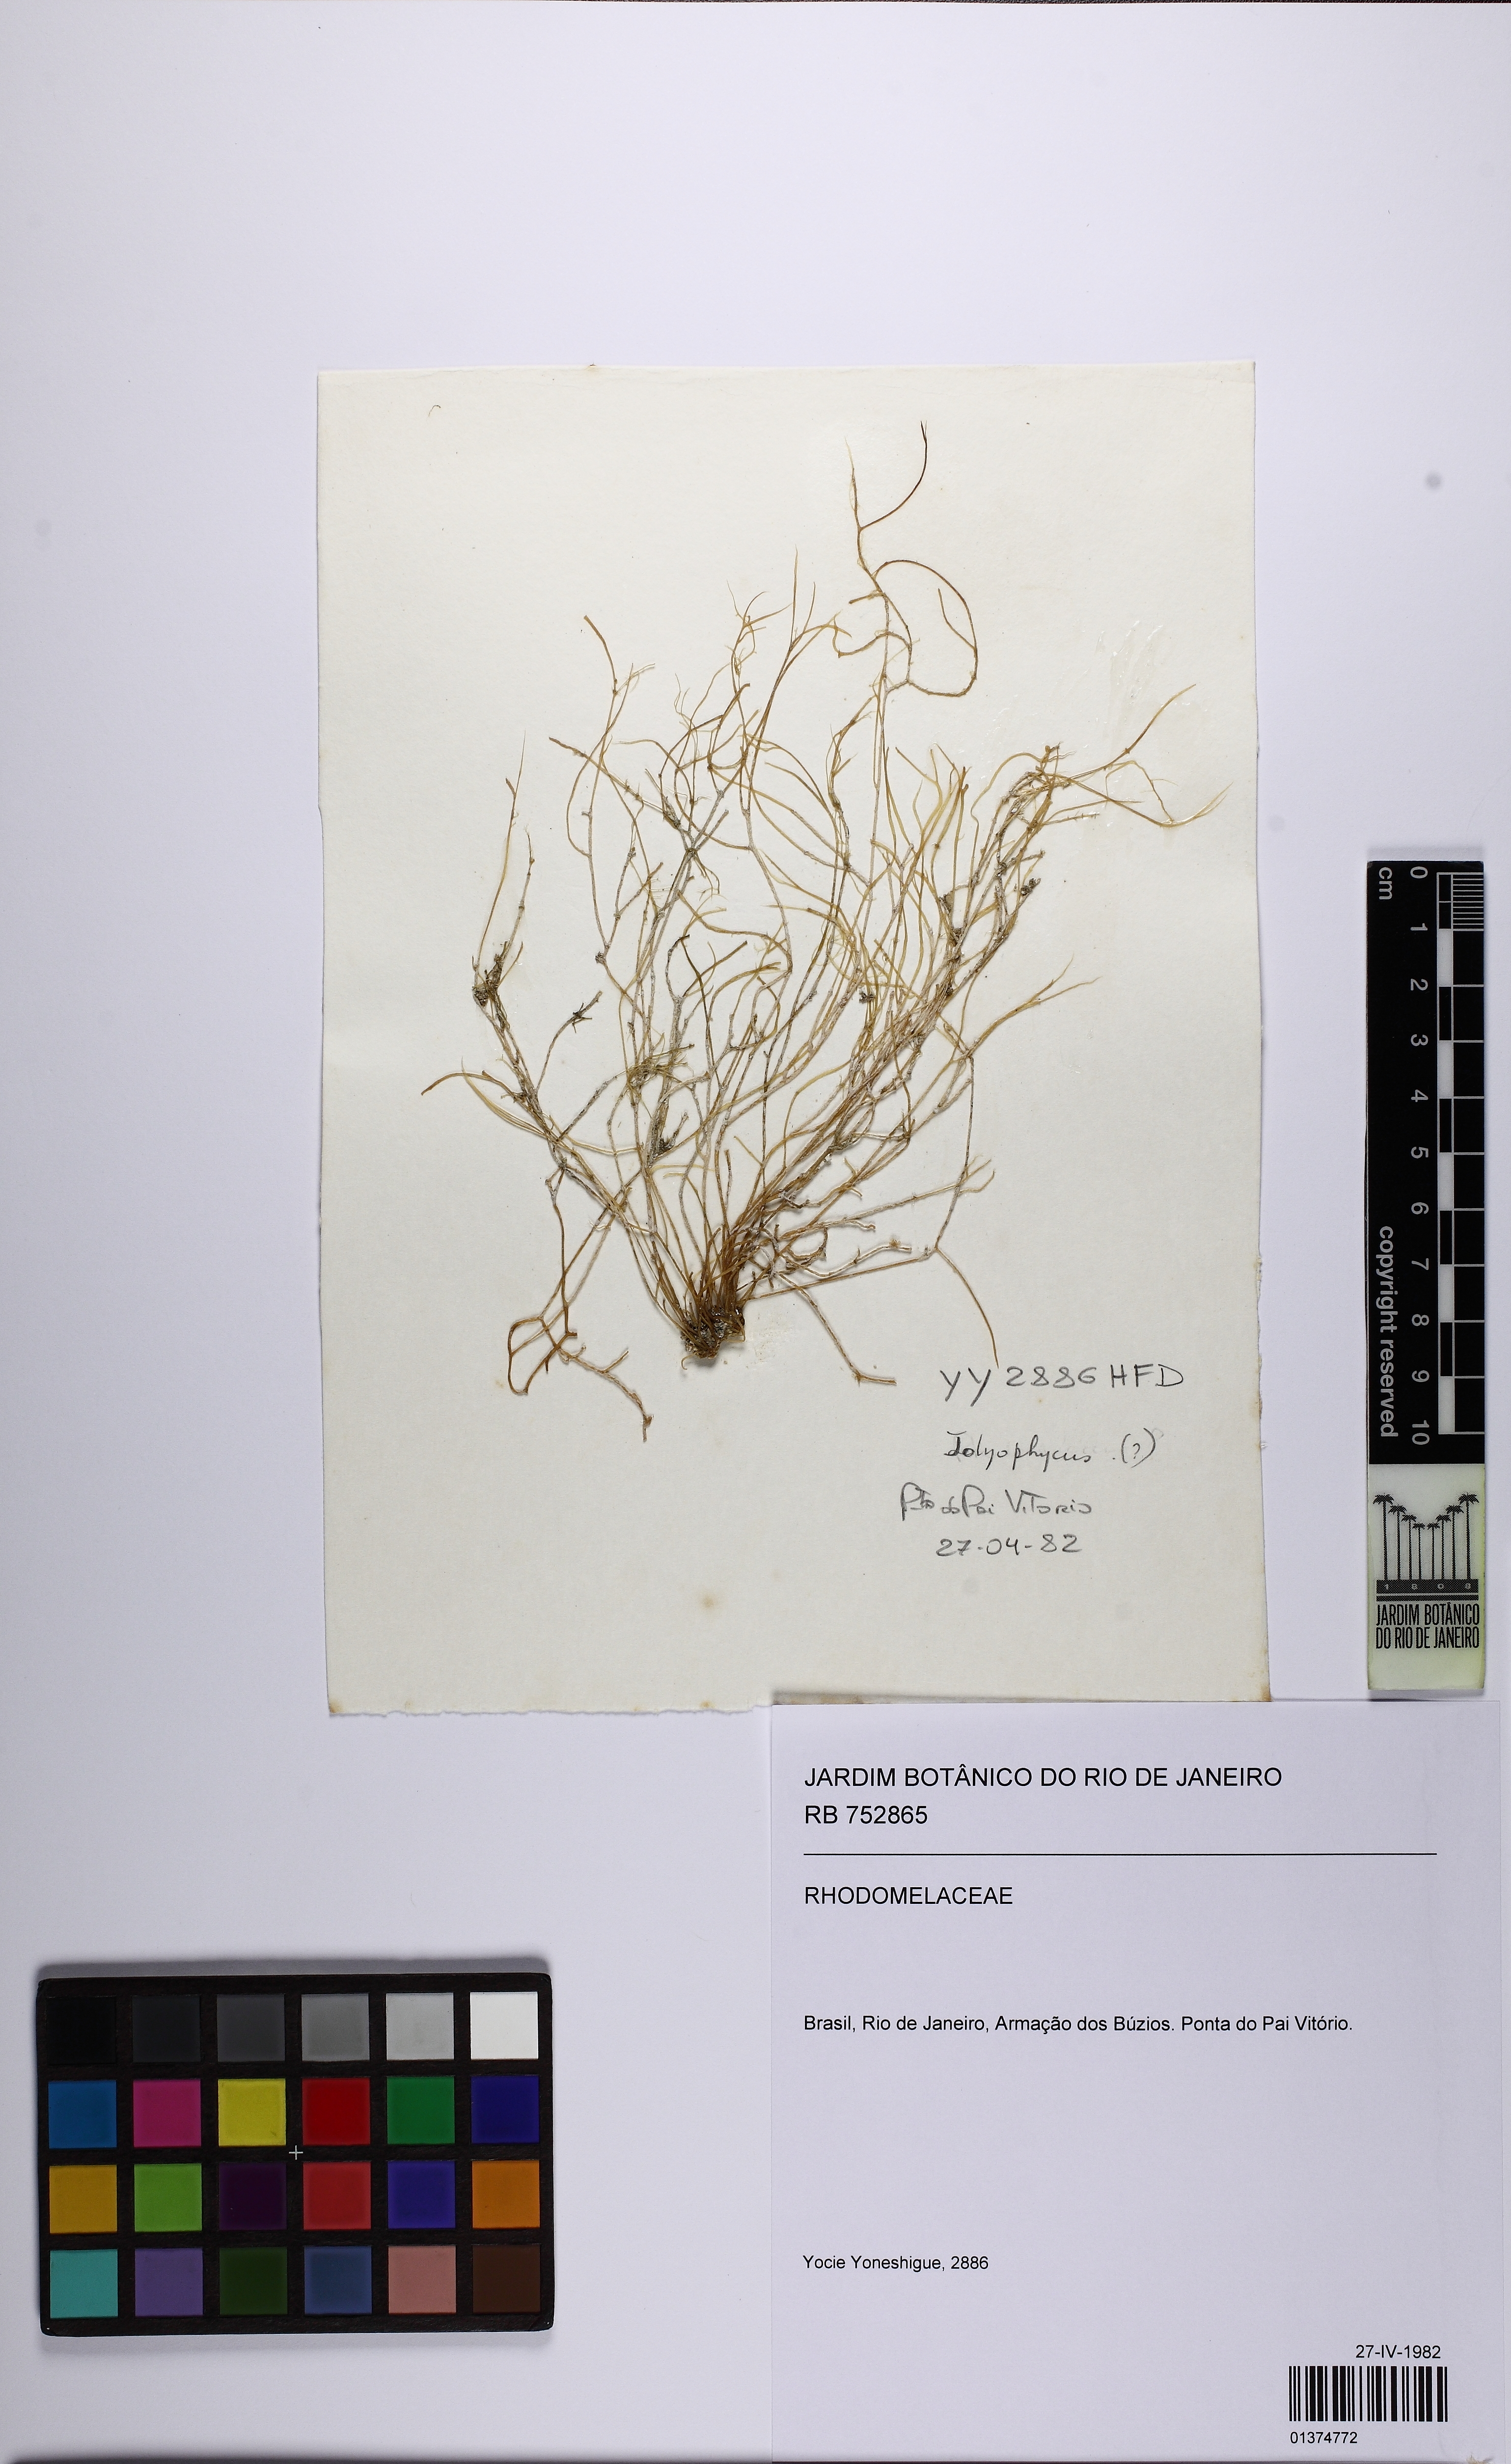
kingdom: Plantae
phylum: Rhodophyta
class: Florideophyceae
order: Ceramiales
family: Rhodomelaceae
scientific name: Rhodomelaceae
